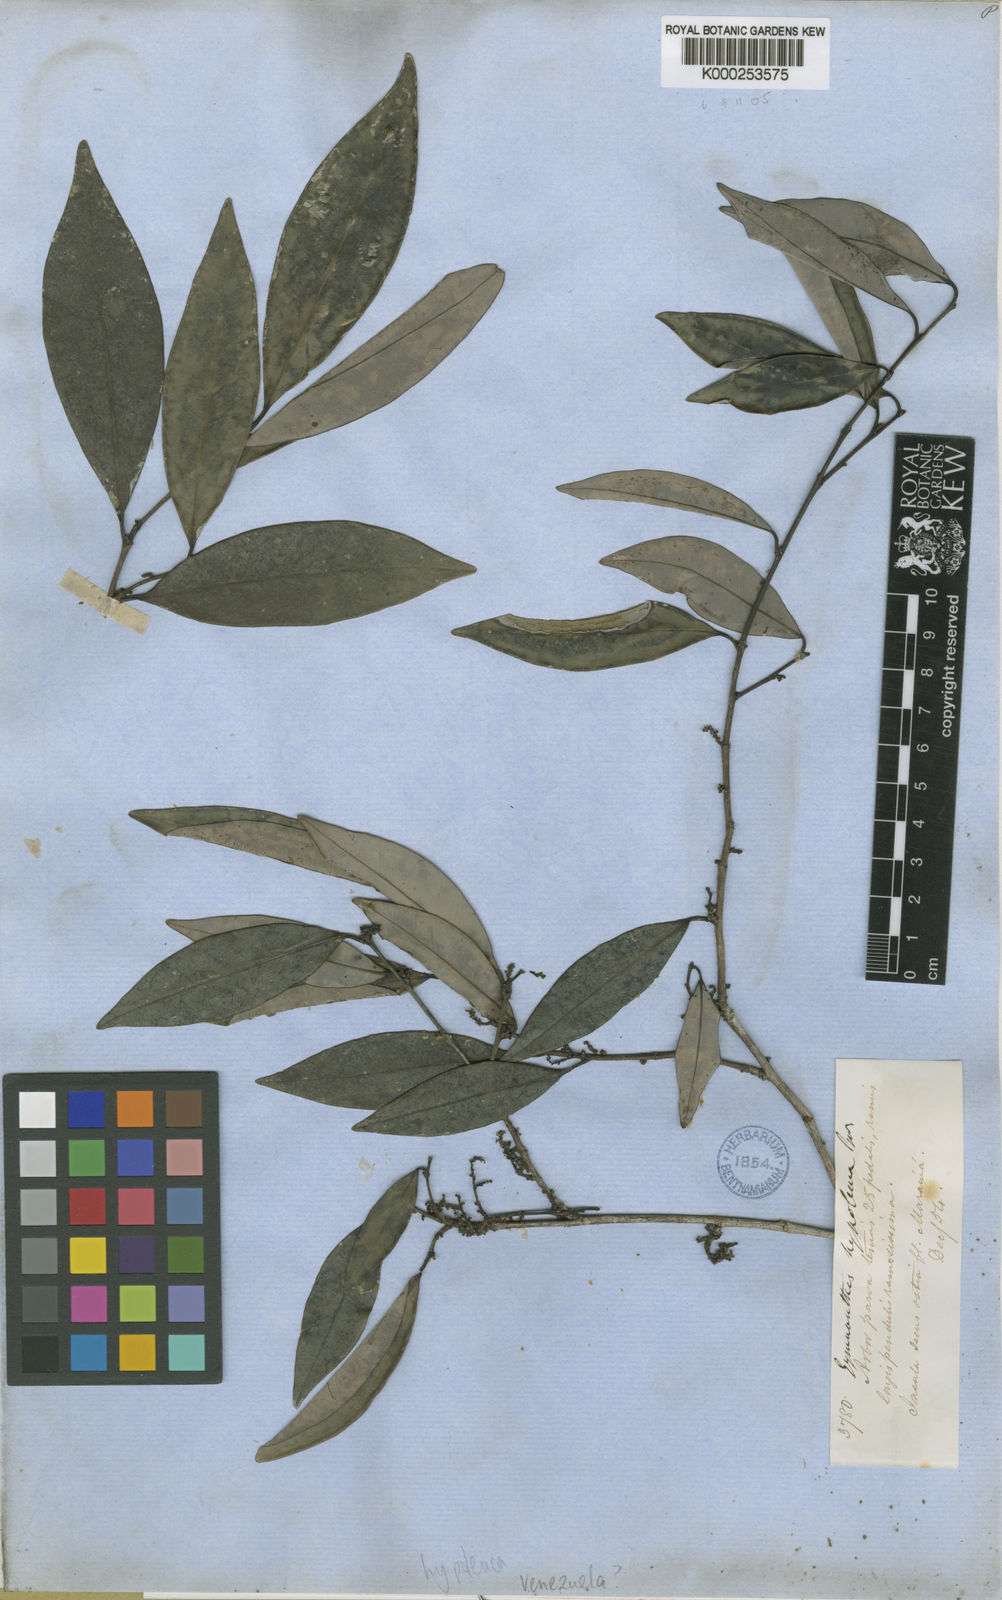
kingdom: Plantae
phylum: Tracheophyta
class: Magnoliopsida
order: Malpighiales
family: Euphorbiaceae
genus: Gymnanthes
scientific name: Gymnanthes hypoleuca
